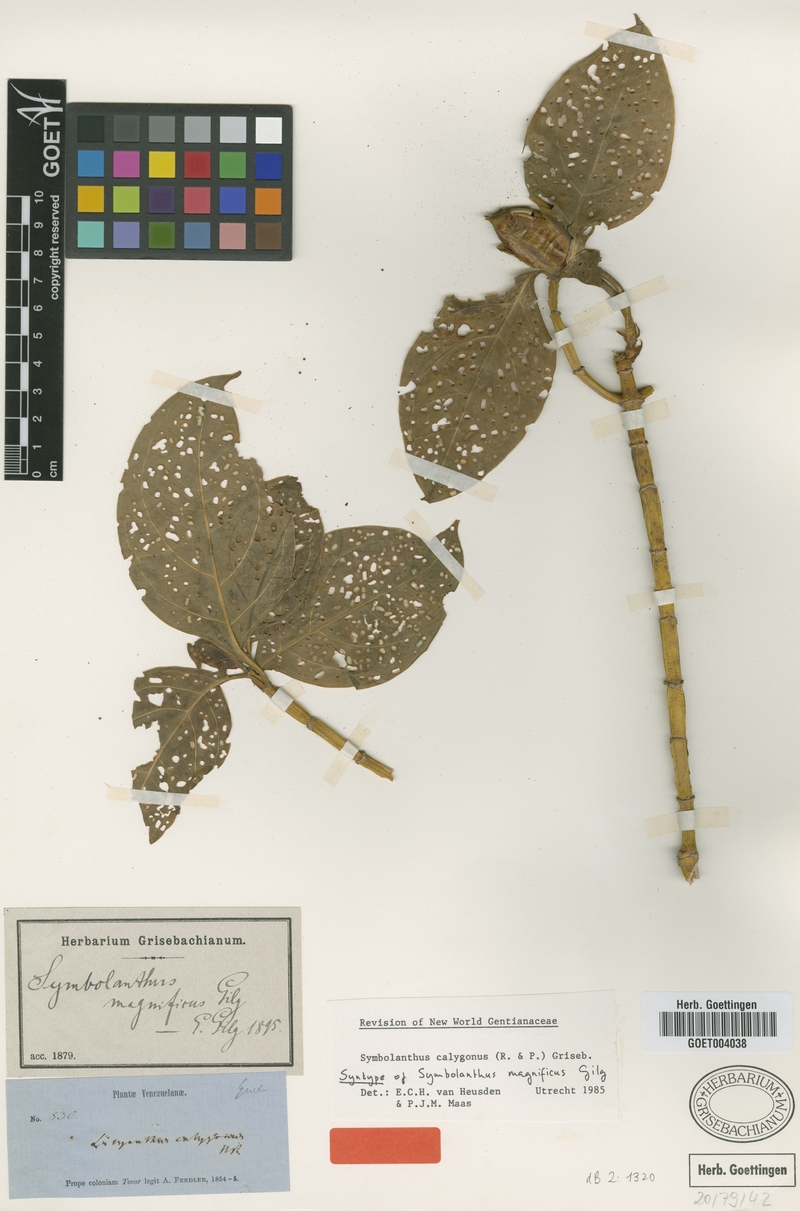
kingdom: Plantae
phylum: Tracheophyta
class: Magnoliopsida
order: Gentianales
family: Gentianaceae
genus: Symbolanthus
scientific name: Symbolanthus calygonus
